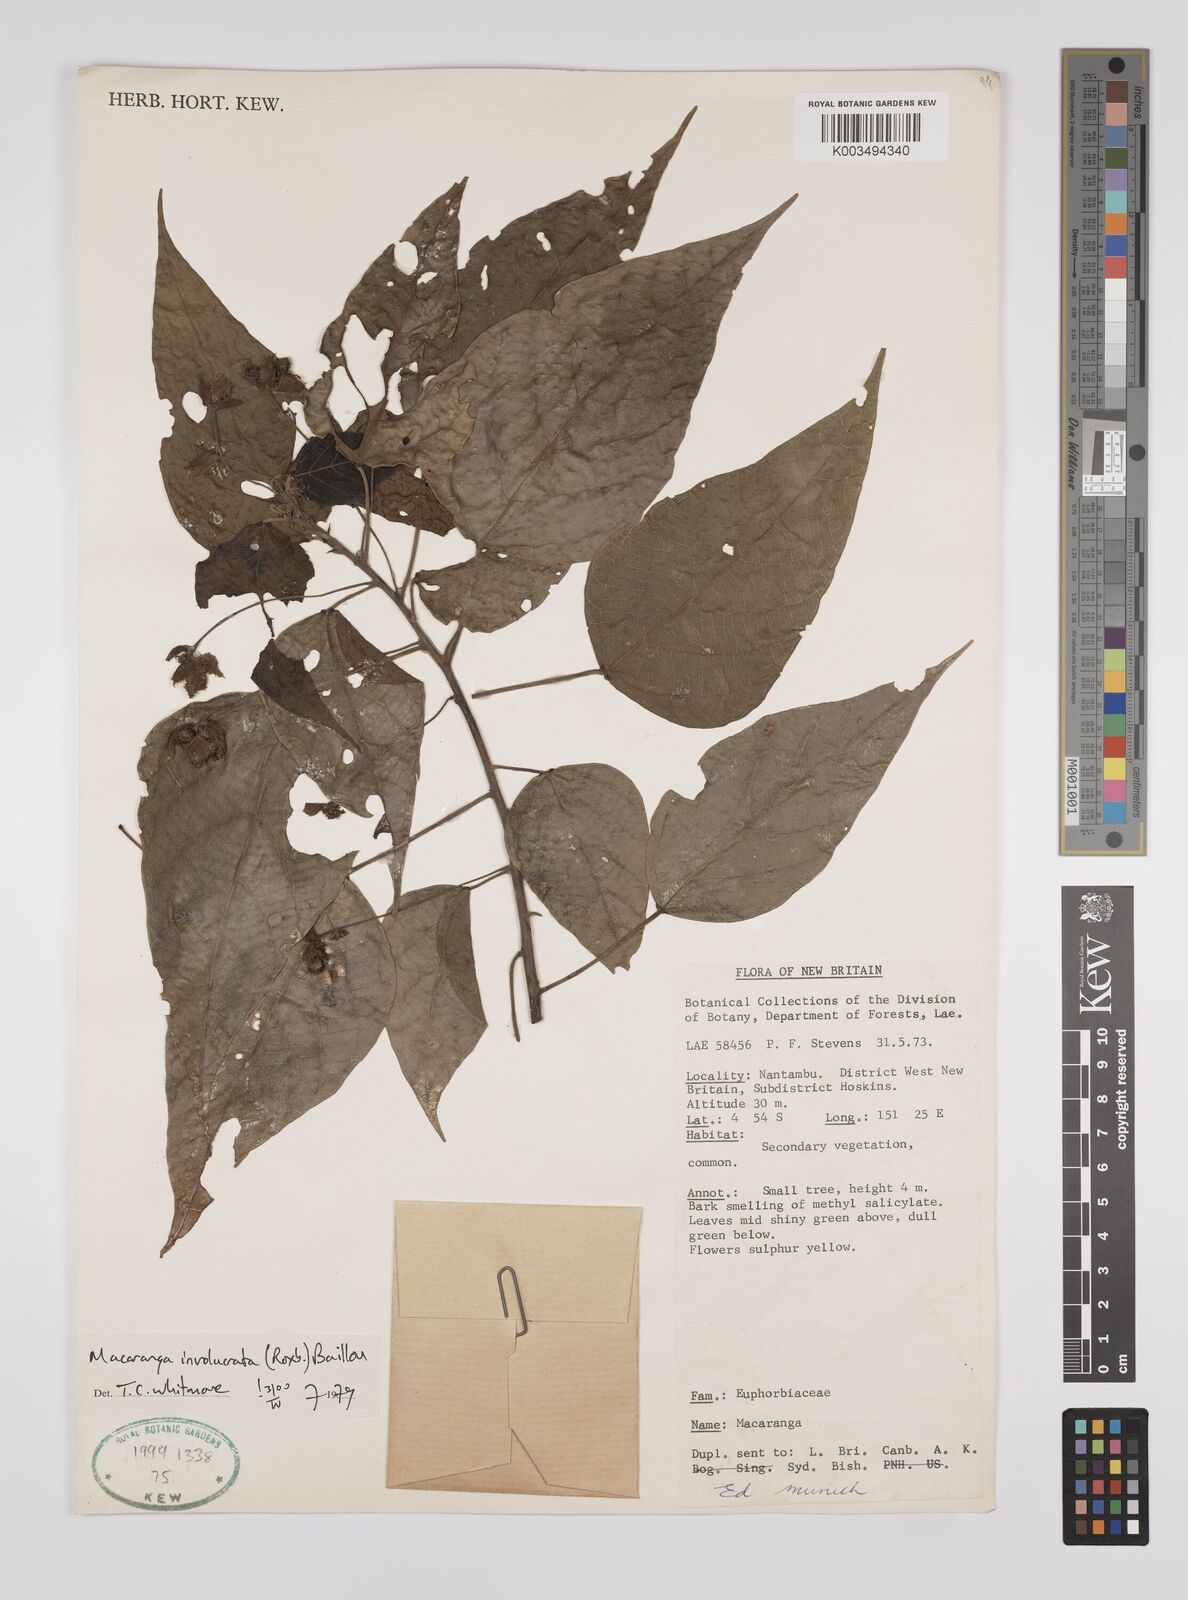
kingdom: Plantae
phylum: Tracheophyta
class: Magnoliopsida
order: Malpighiales
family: Euphorbiaceae
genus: Macaranga
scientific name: Macaranga involucrata
